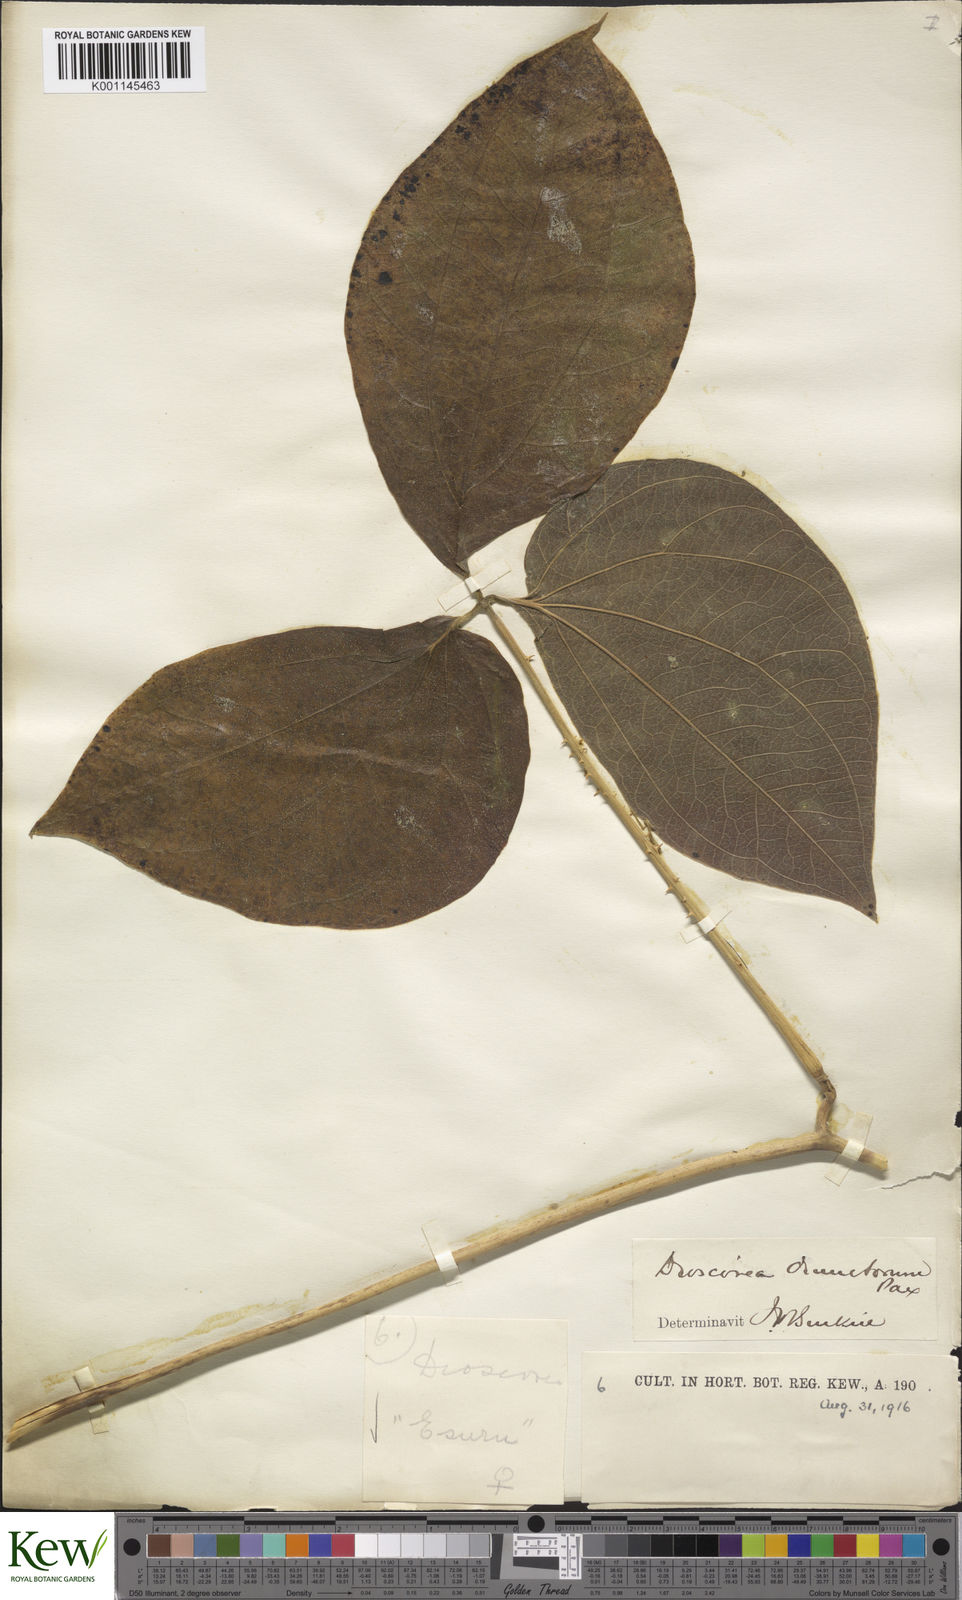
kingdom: Plantae
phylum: Tracheophyta
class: Liliopsida
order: Dioscoreales
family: Dioscoreaceae
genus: Dioscorea
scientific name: Dioscorea dumetorum
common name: African bitter yam
